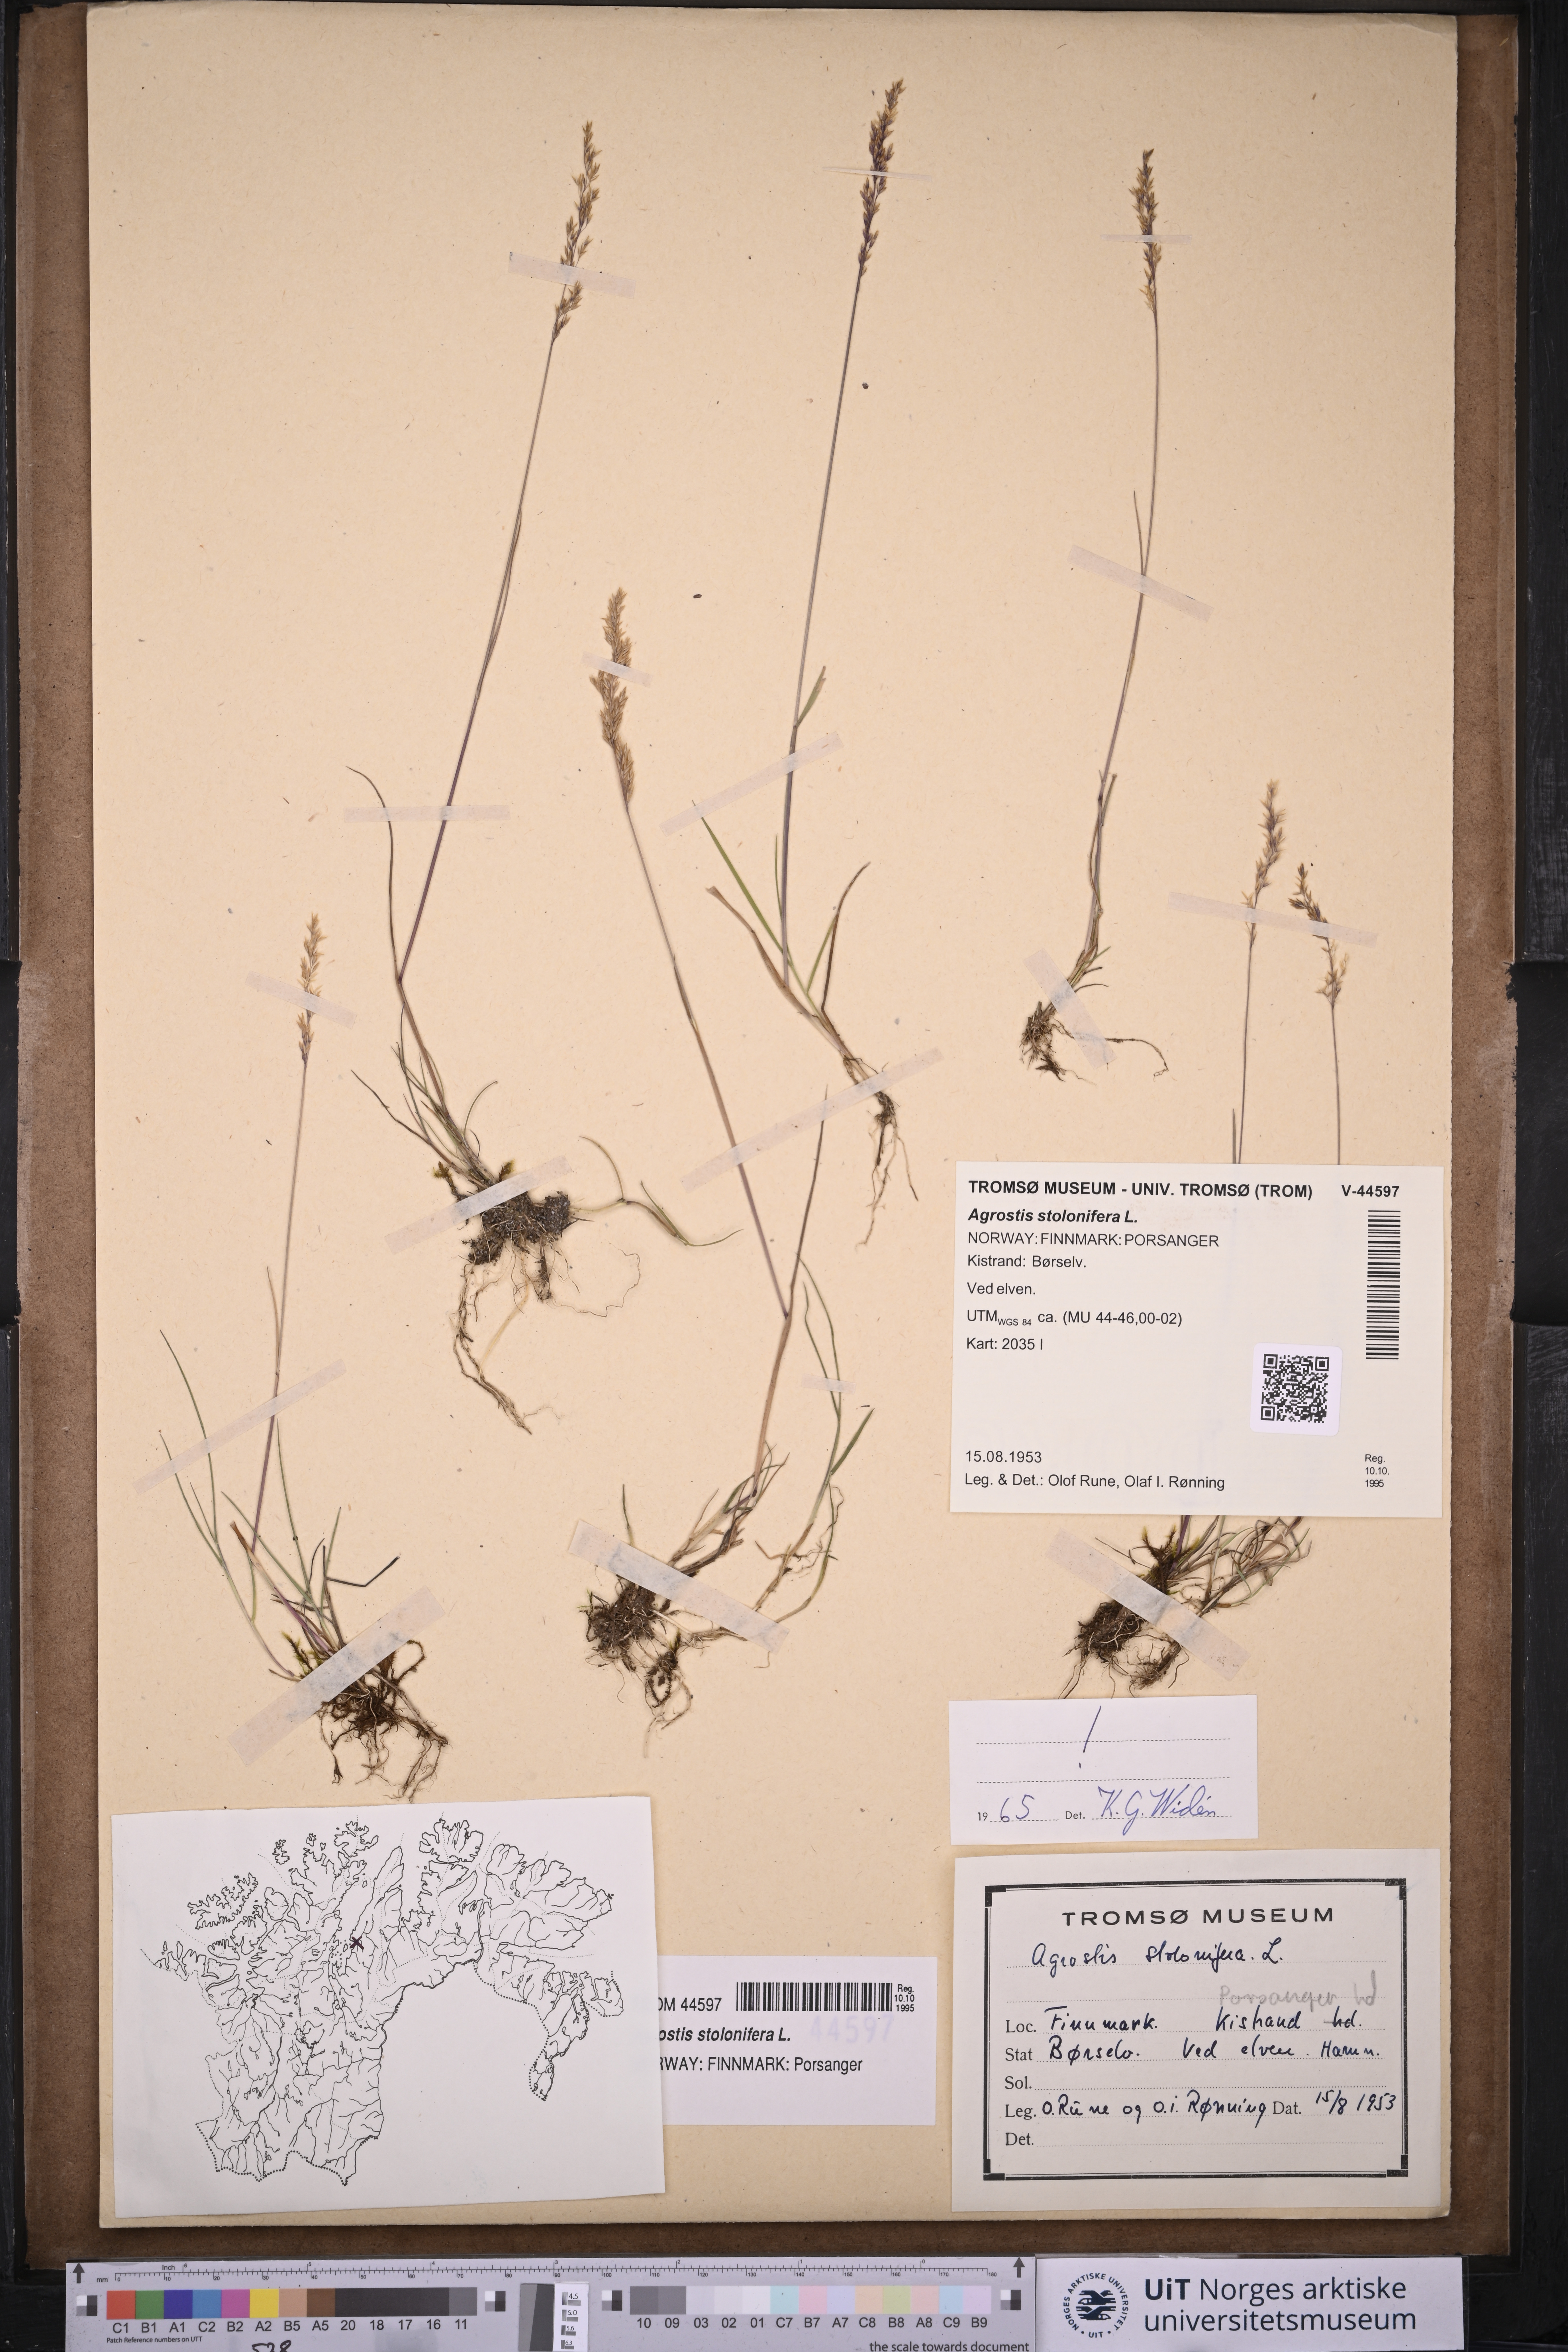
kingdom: Plantae
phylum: Tracheophyta
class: Liliopsida
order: Poales
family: Poaceae
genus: Agrostis
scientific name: Agrostis stolonifera
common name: Creeping bentgrass
